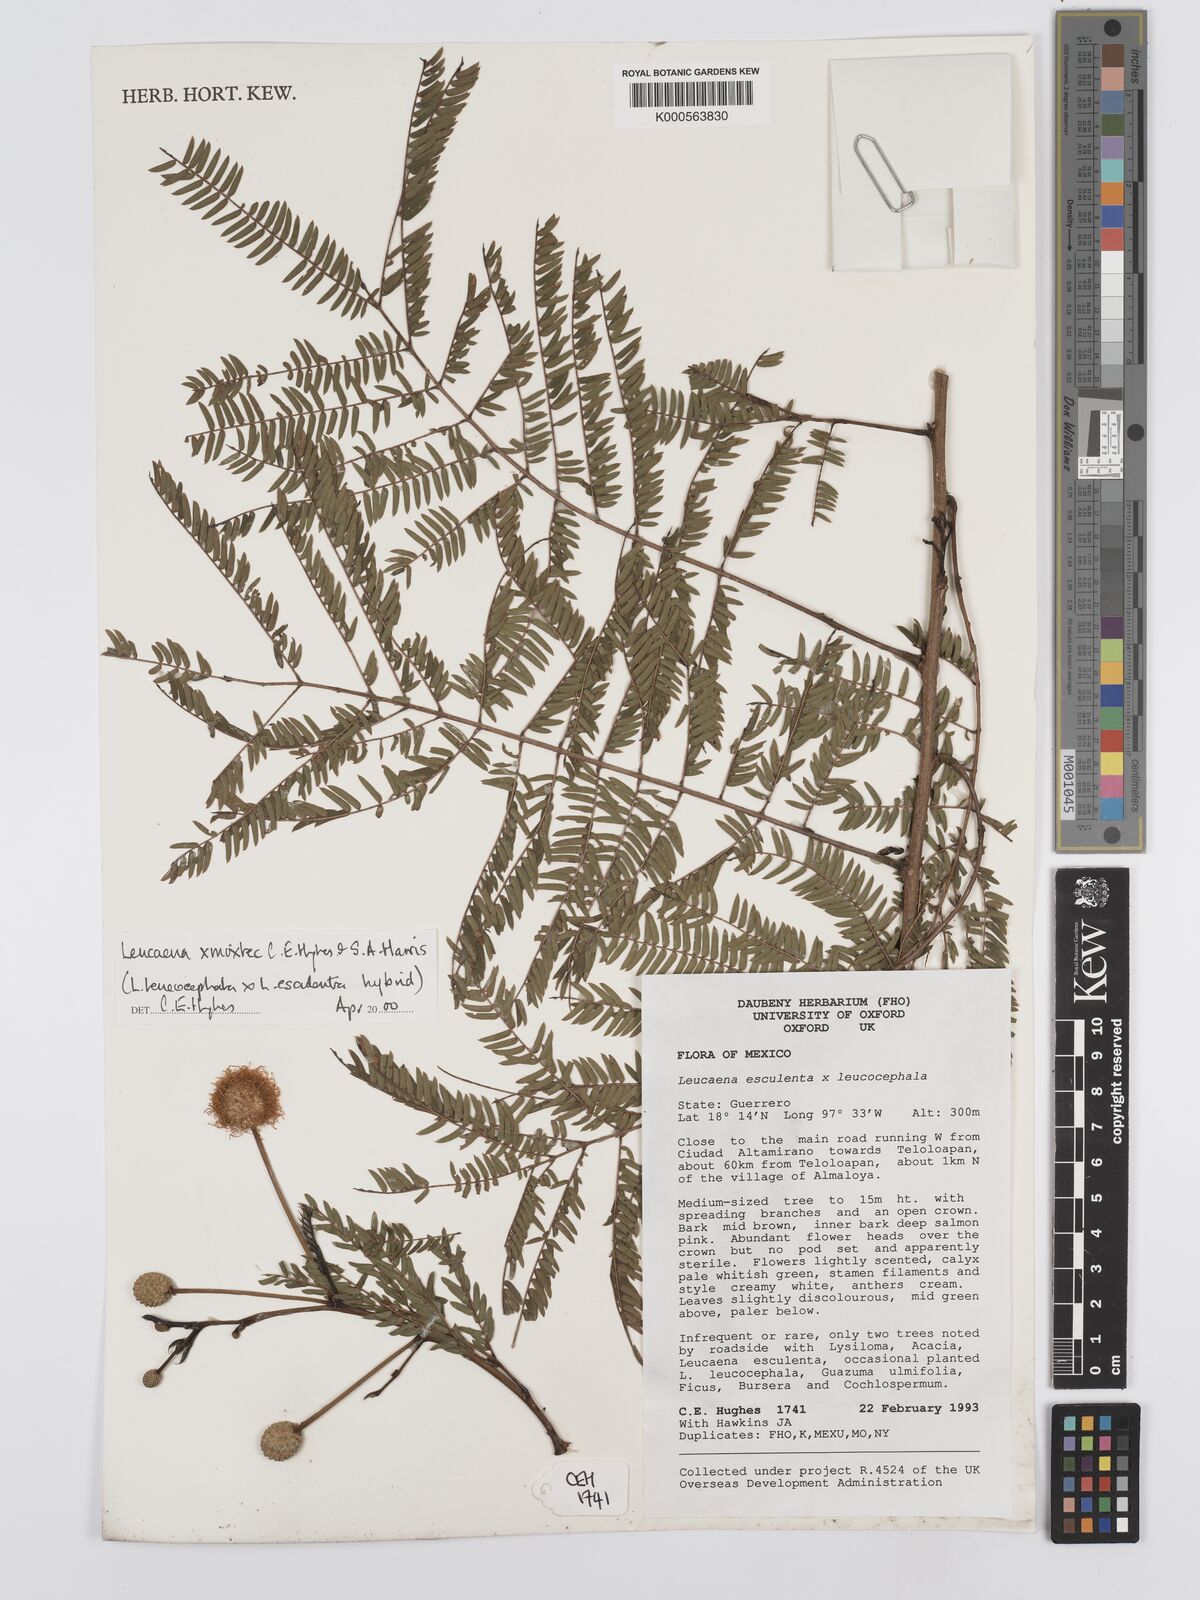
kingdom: Plantae
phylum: Tracheophyta
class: Magnoliopsida
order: Fabales
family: Fabaceae
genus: Leucaena
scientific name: Leucaena mixtec
